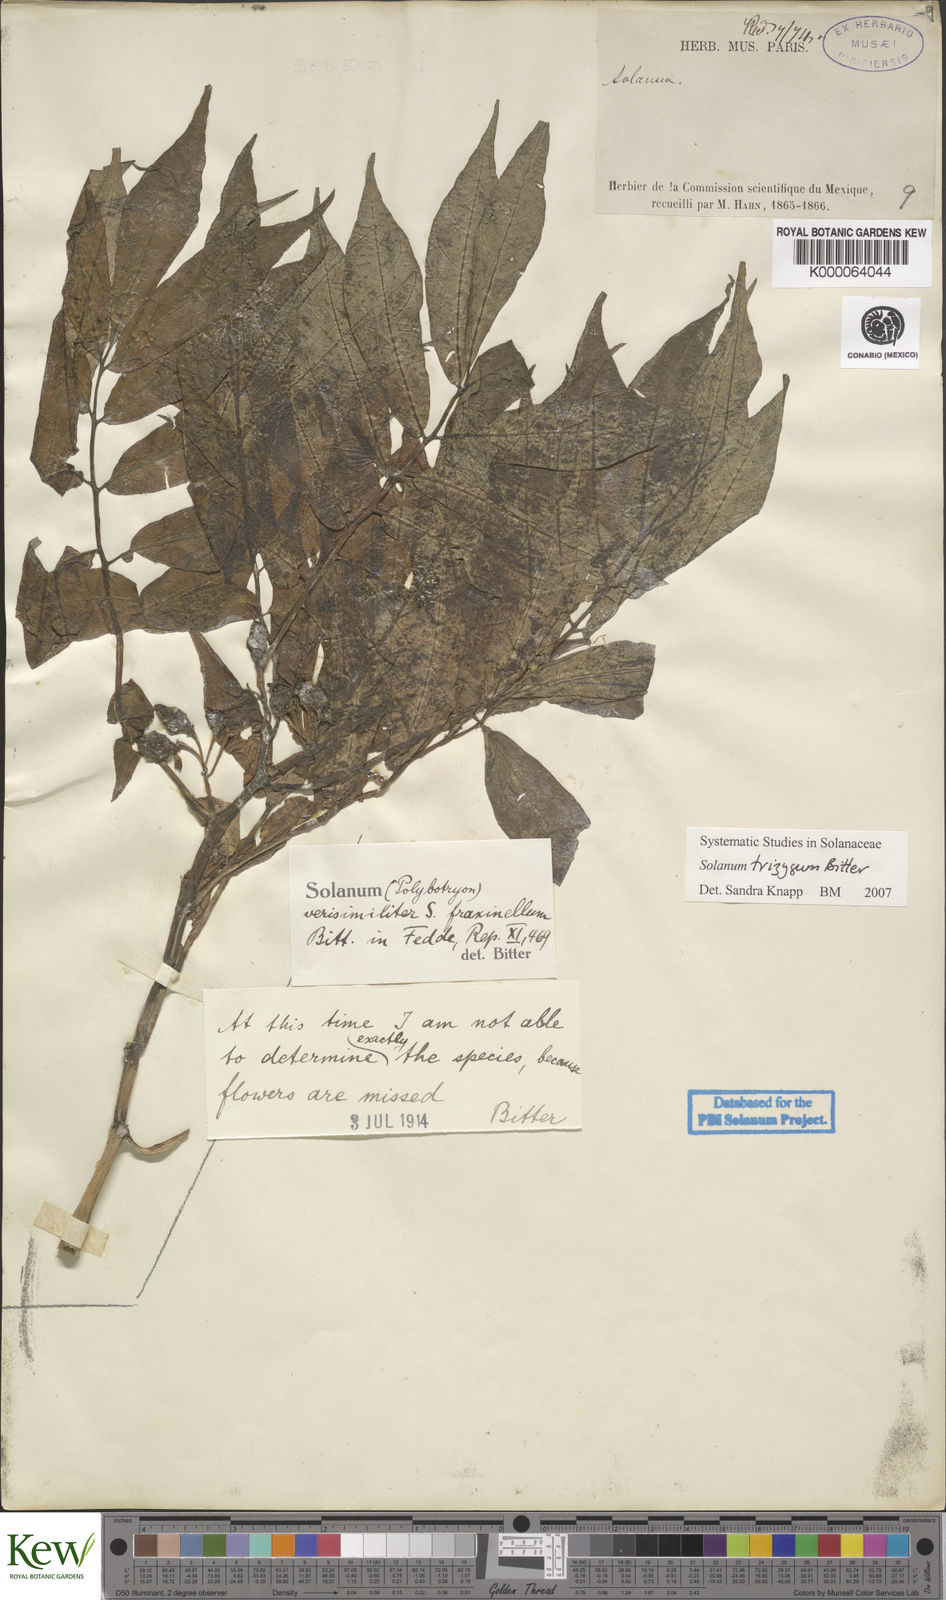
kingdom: Plantae
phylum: Tracheophyta
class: Magnoliopsida
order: Solanales
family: Solanaceae
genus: Solanum
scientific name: Solanum
